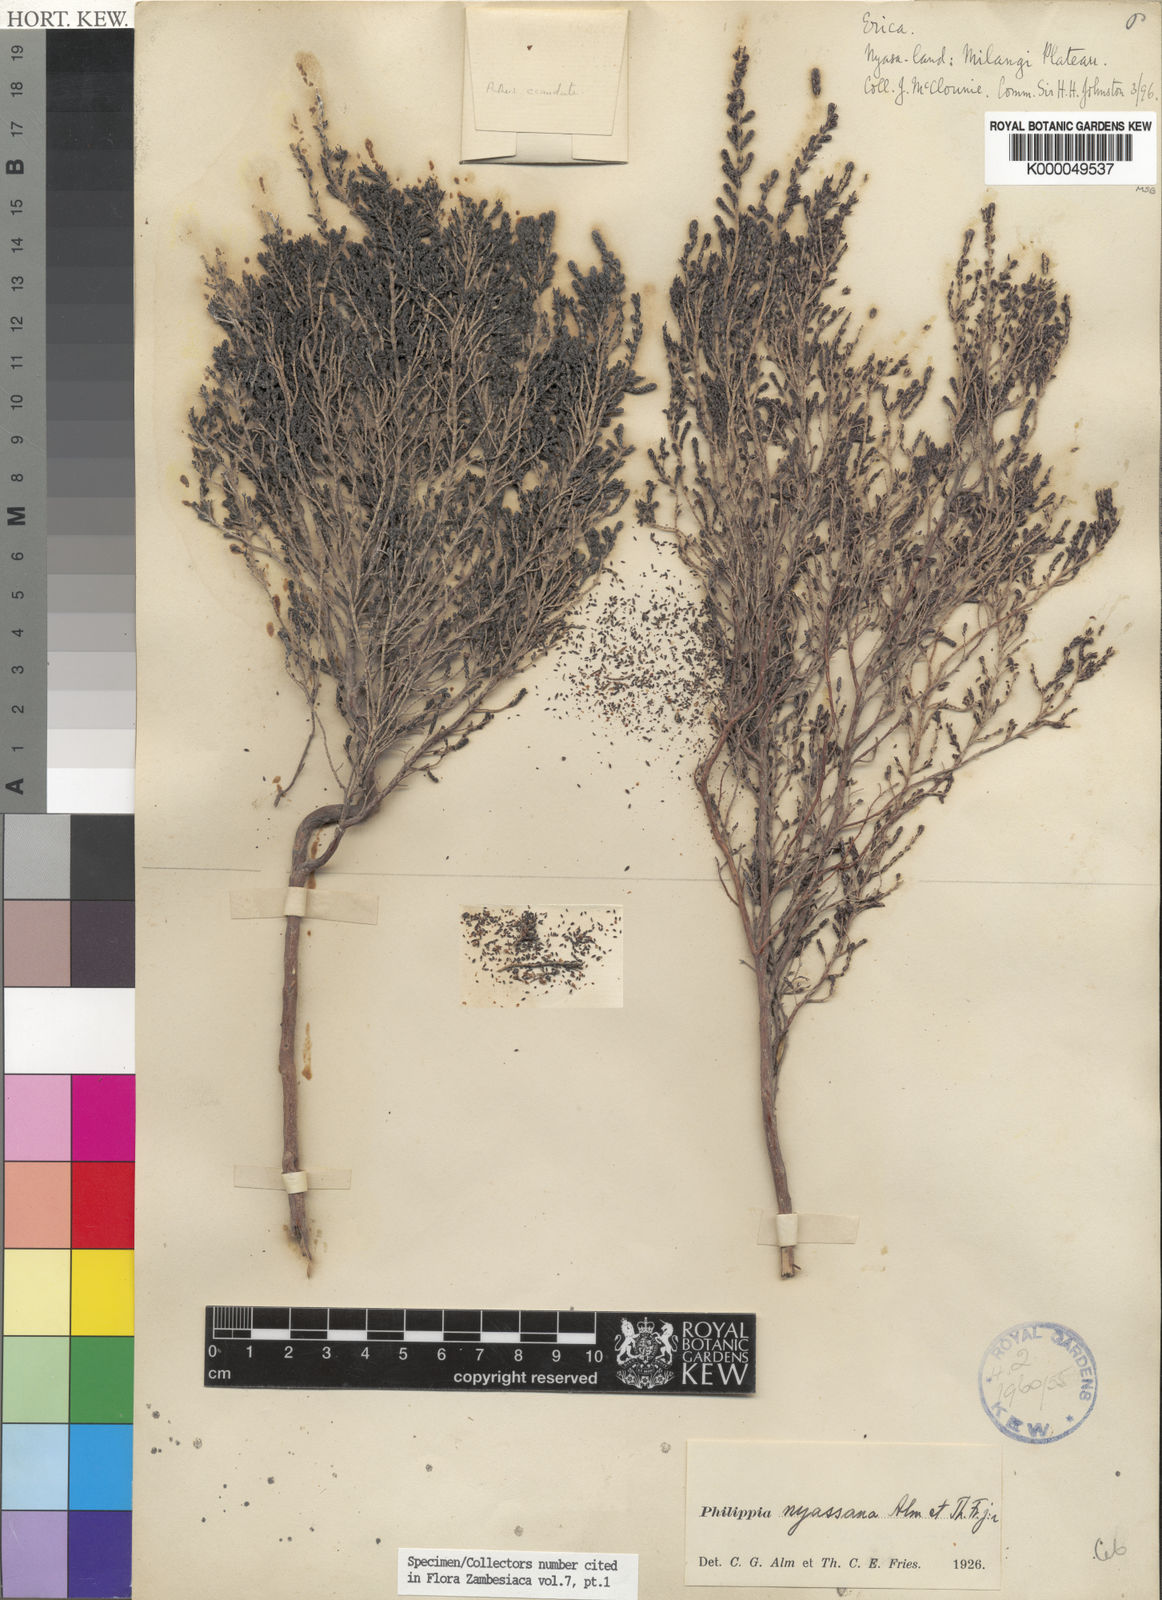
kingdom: Plantae
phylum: Tracheophyta
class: Magnoliopsida
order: Ericales
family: Ericaceae
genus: Erica
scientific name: Erica nyassana
